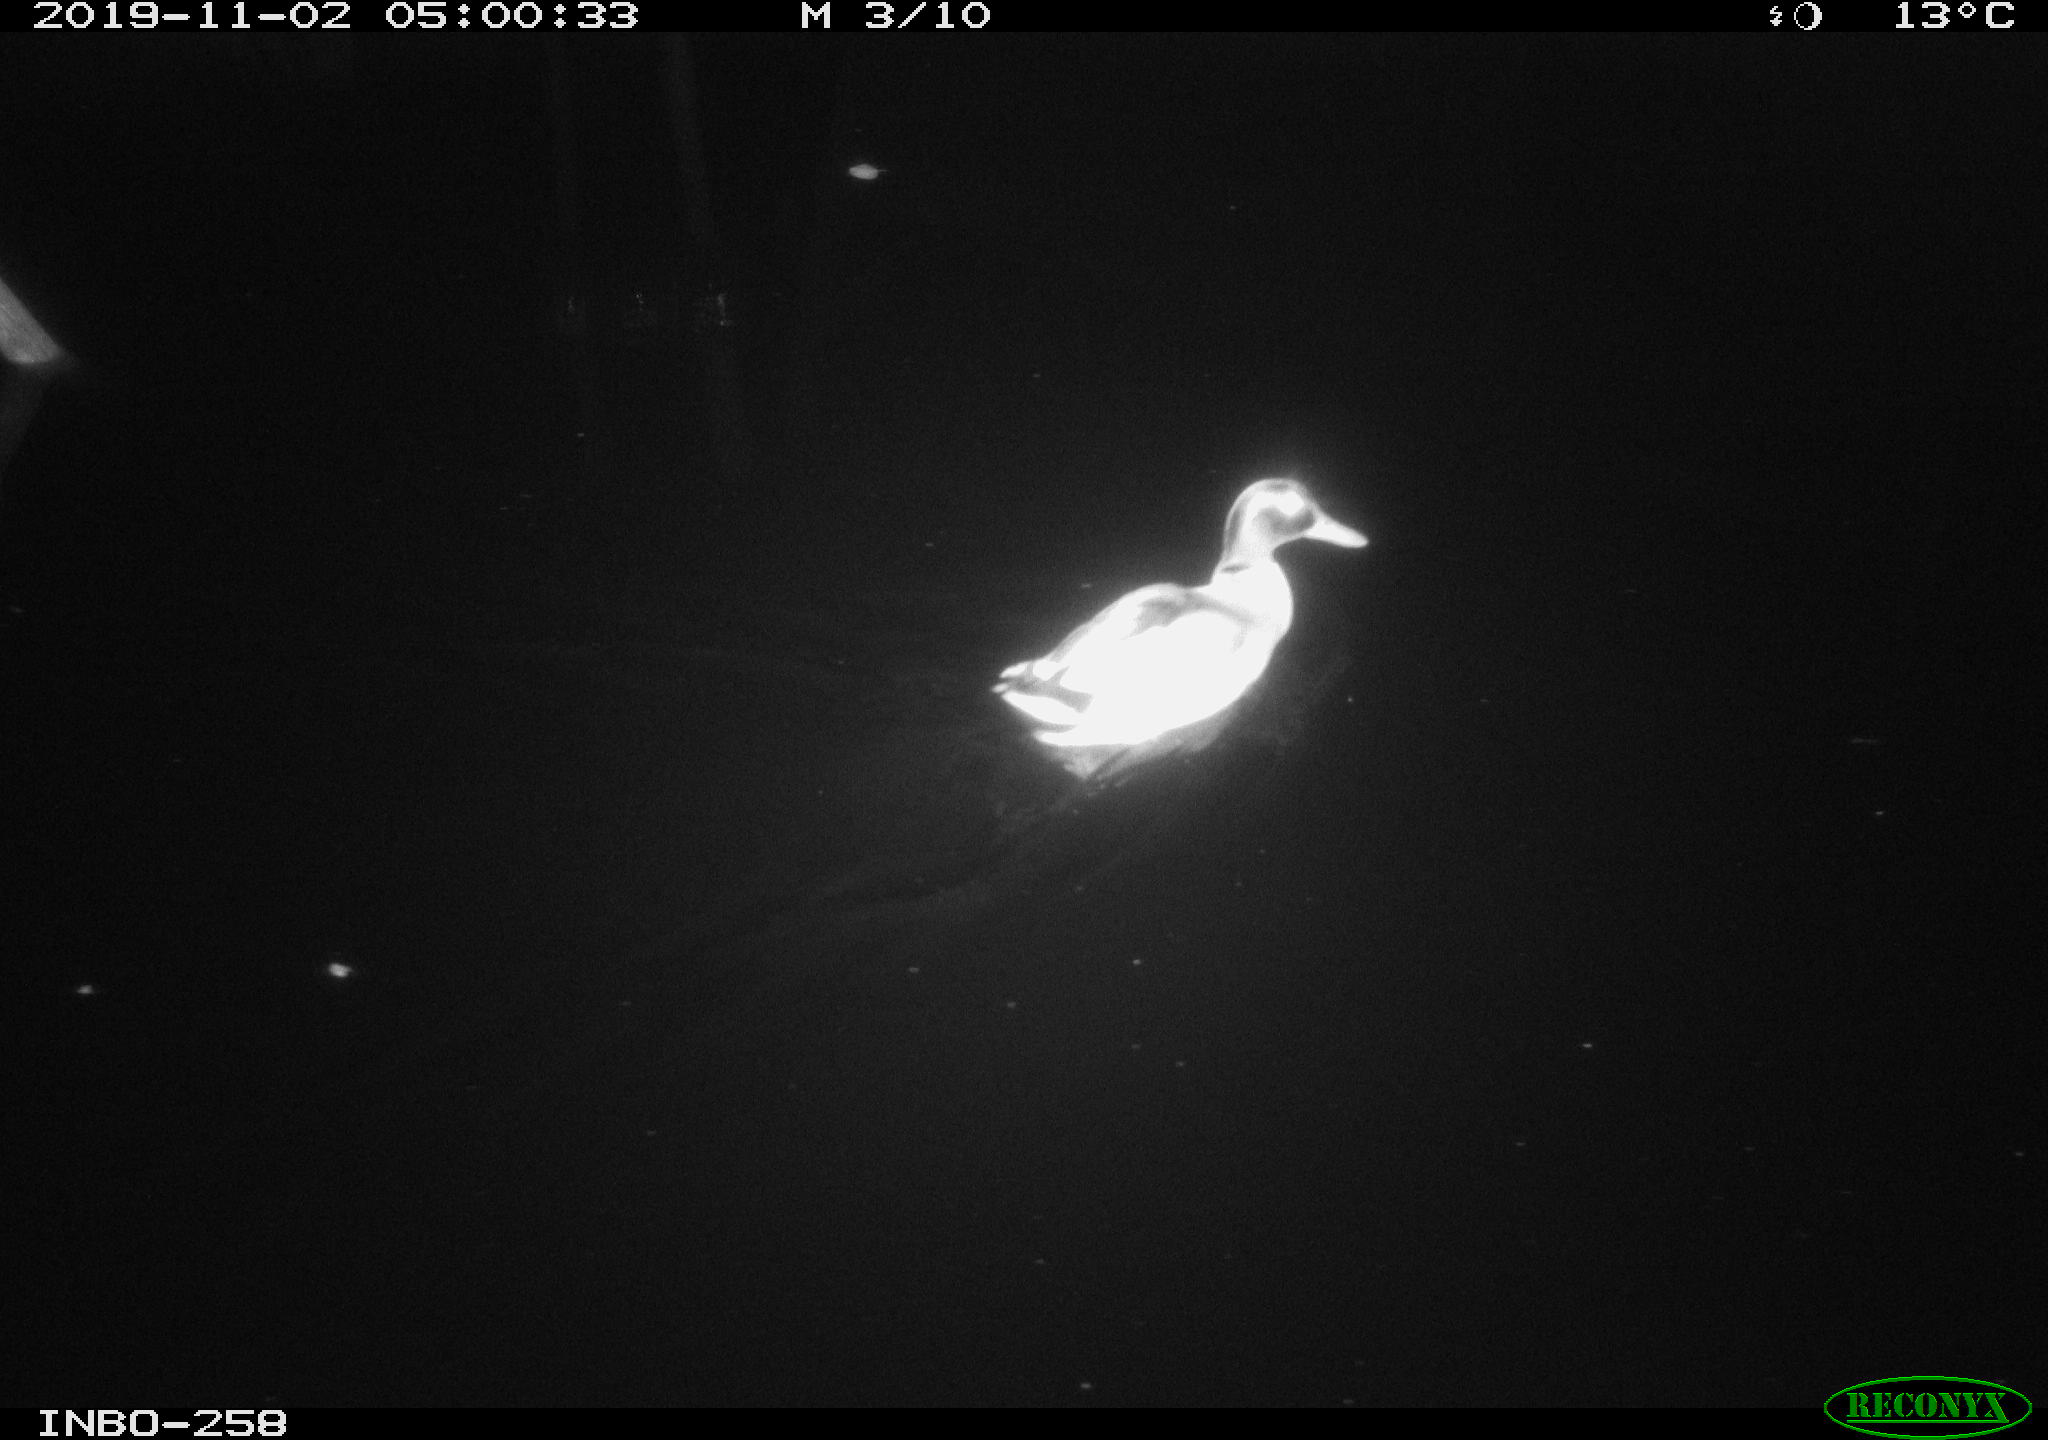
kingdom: Animalia
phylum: Chordata
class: Aves
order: Anseriformes
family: Anatidae
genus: Anas
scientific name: Anas platyrhynchos
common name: Mallard
